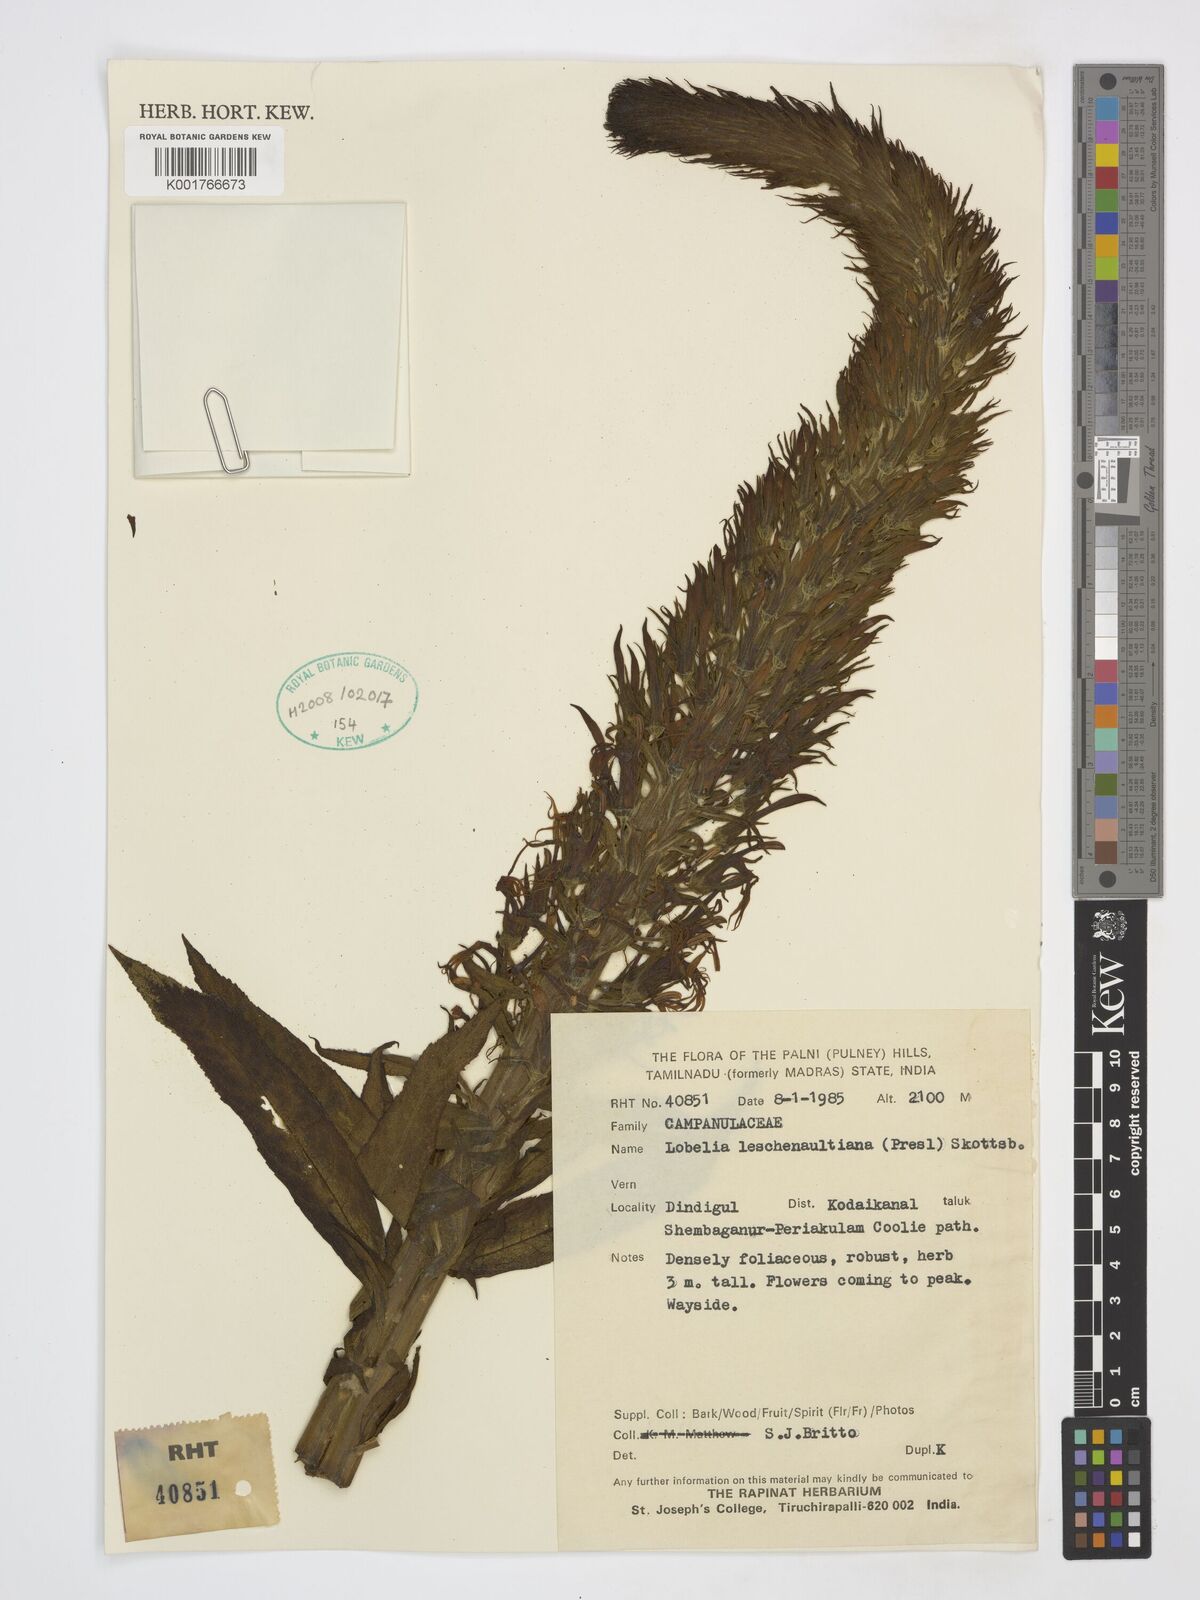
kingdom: Plantae
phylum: Tracheophyta
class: Magnoliopsida
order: Asterales
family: Campanulaceae
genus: Lobelia
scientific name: Lobelia leschenaultiana
